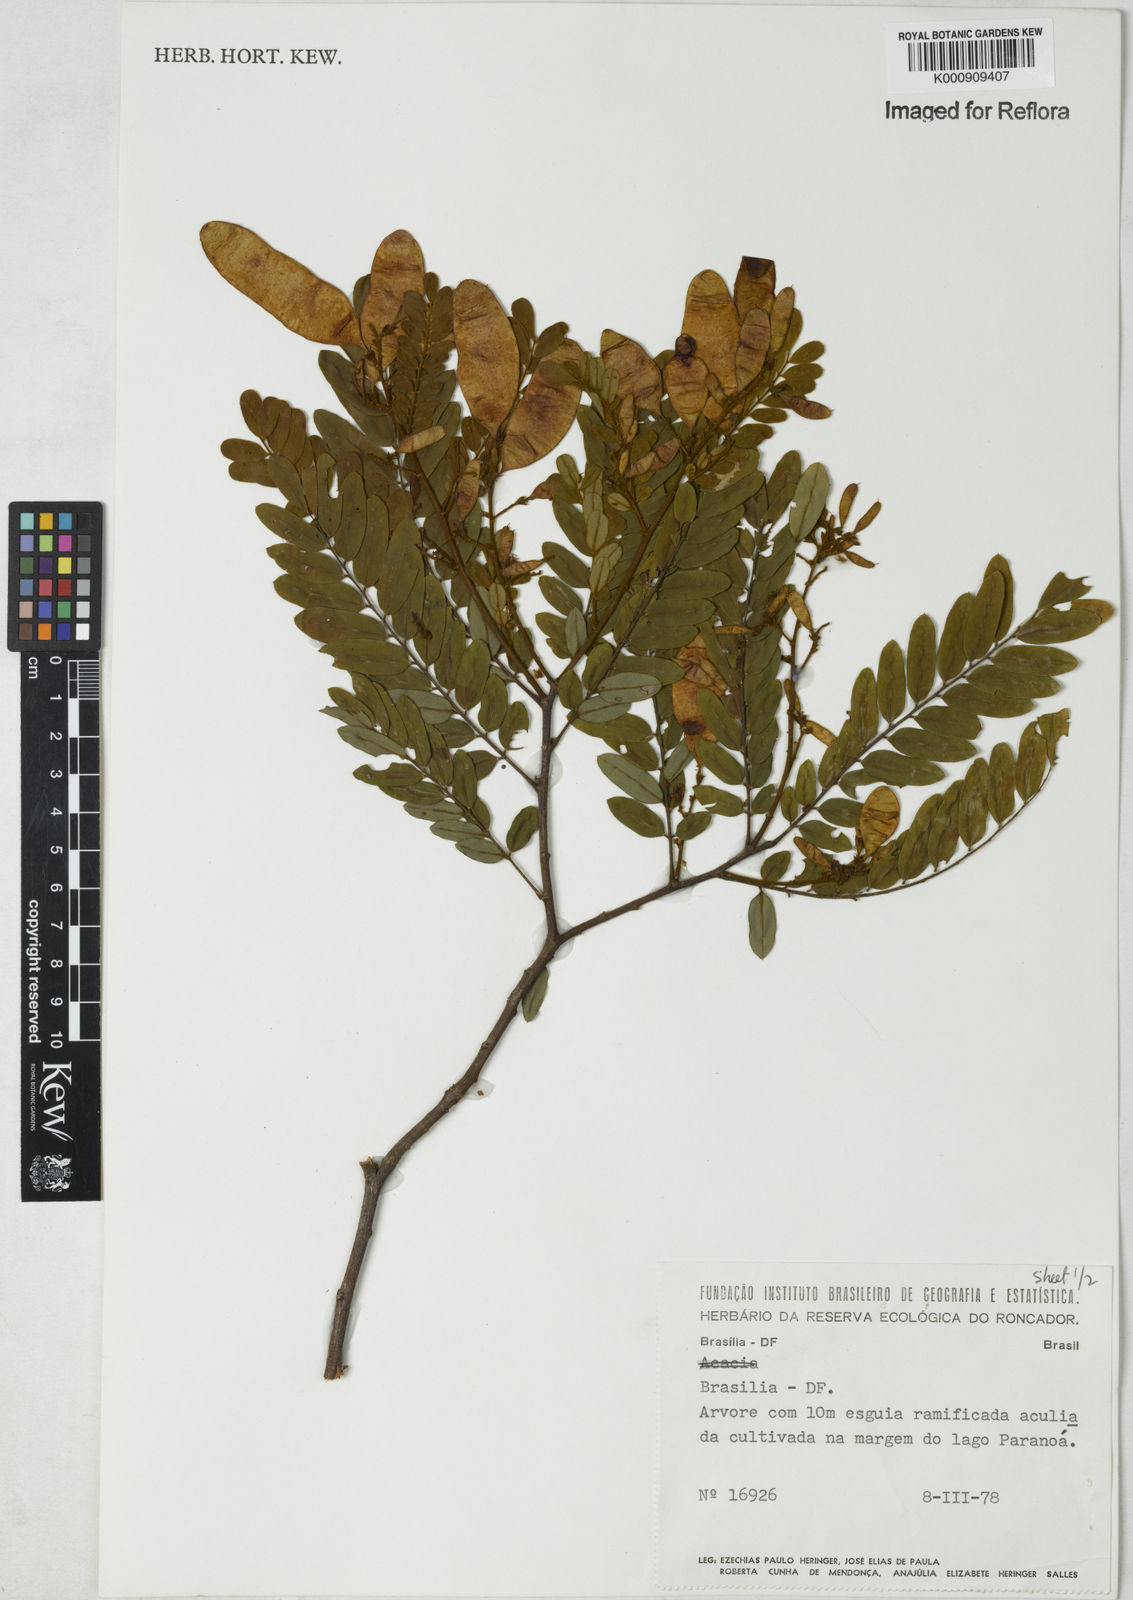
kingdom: Plantae
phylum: Tracheophyta
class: Magnoliopsida
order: Fabales
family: Fabaceae
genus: Dalbergia
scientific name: Dalbergia
